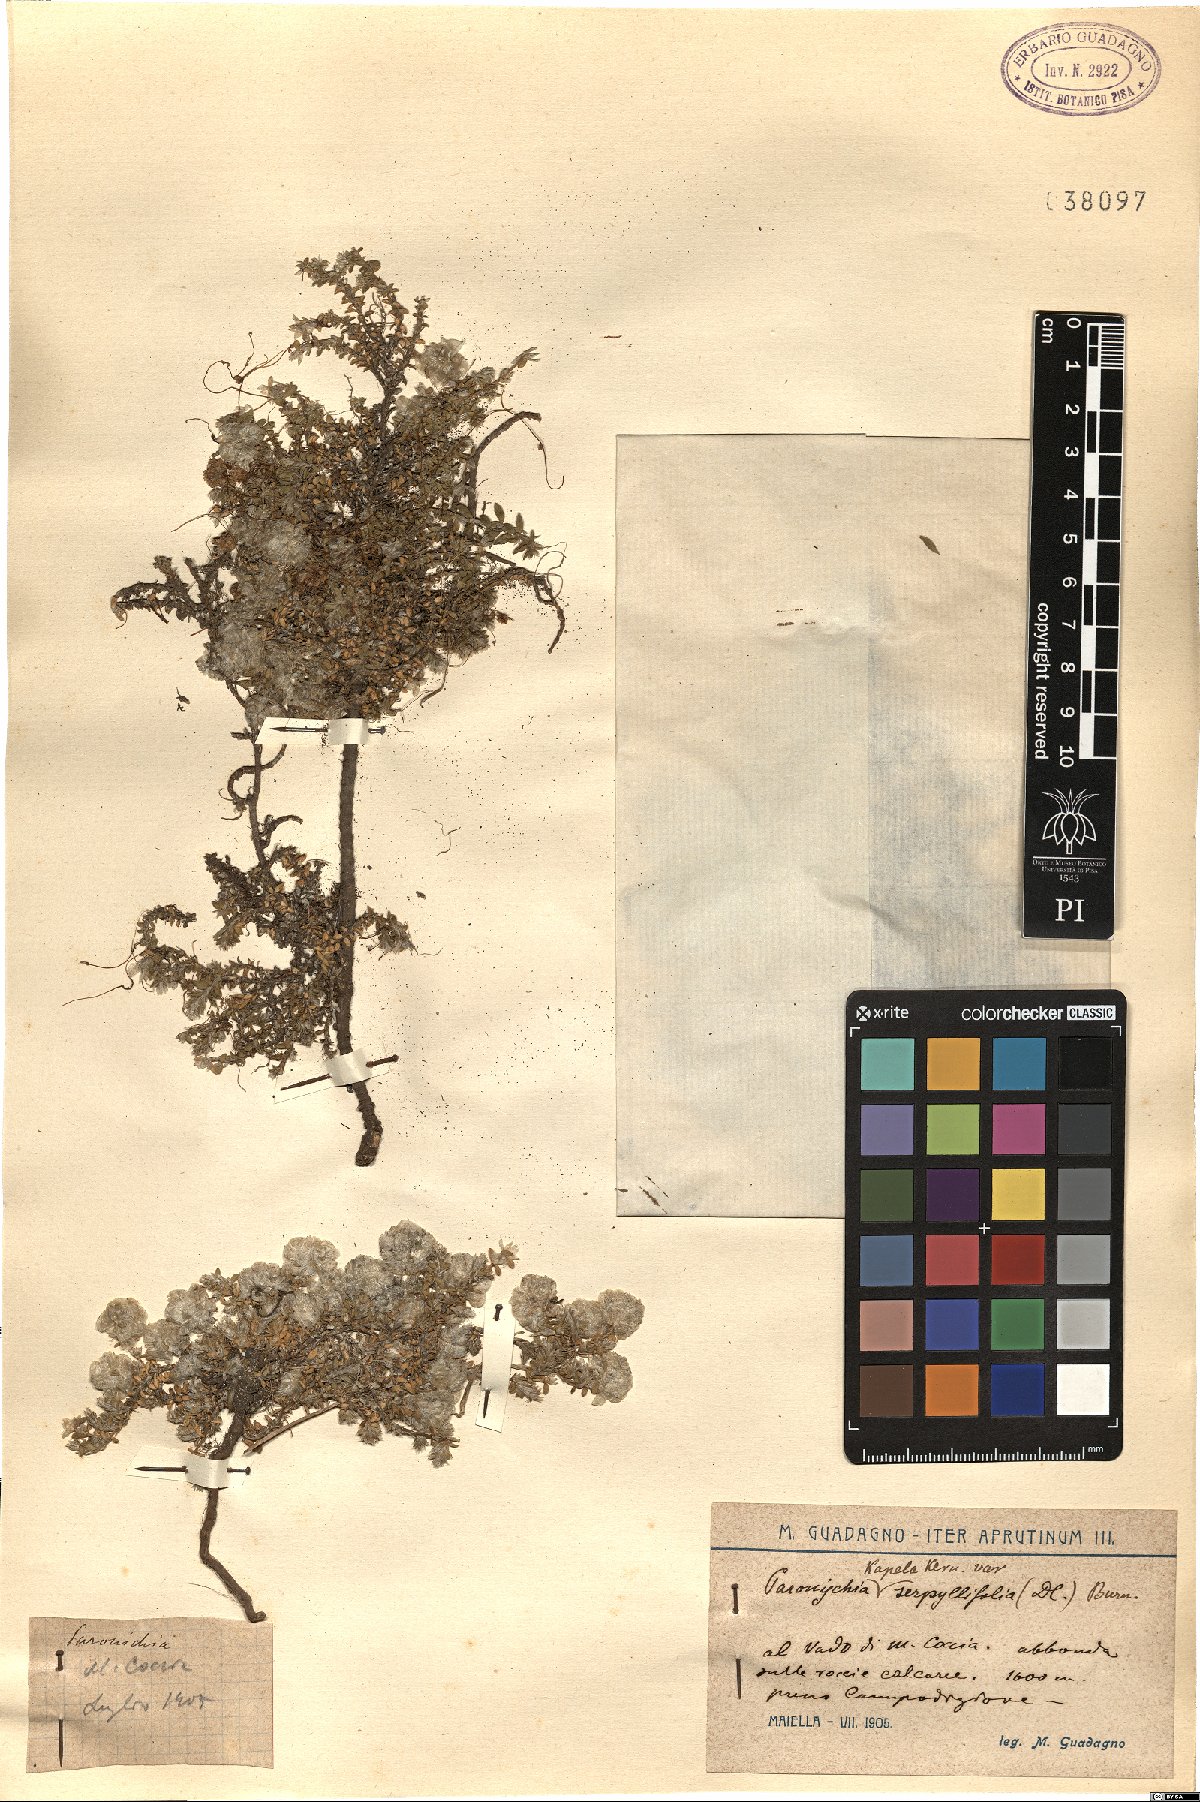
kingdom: Plantae
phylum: Tracheophyta
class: Magnoliopsida
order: Caryophyllales
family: Caryophyllaceae
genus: Paronychia
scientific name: Paronychia kapela
